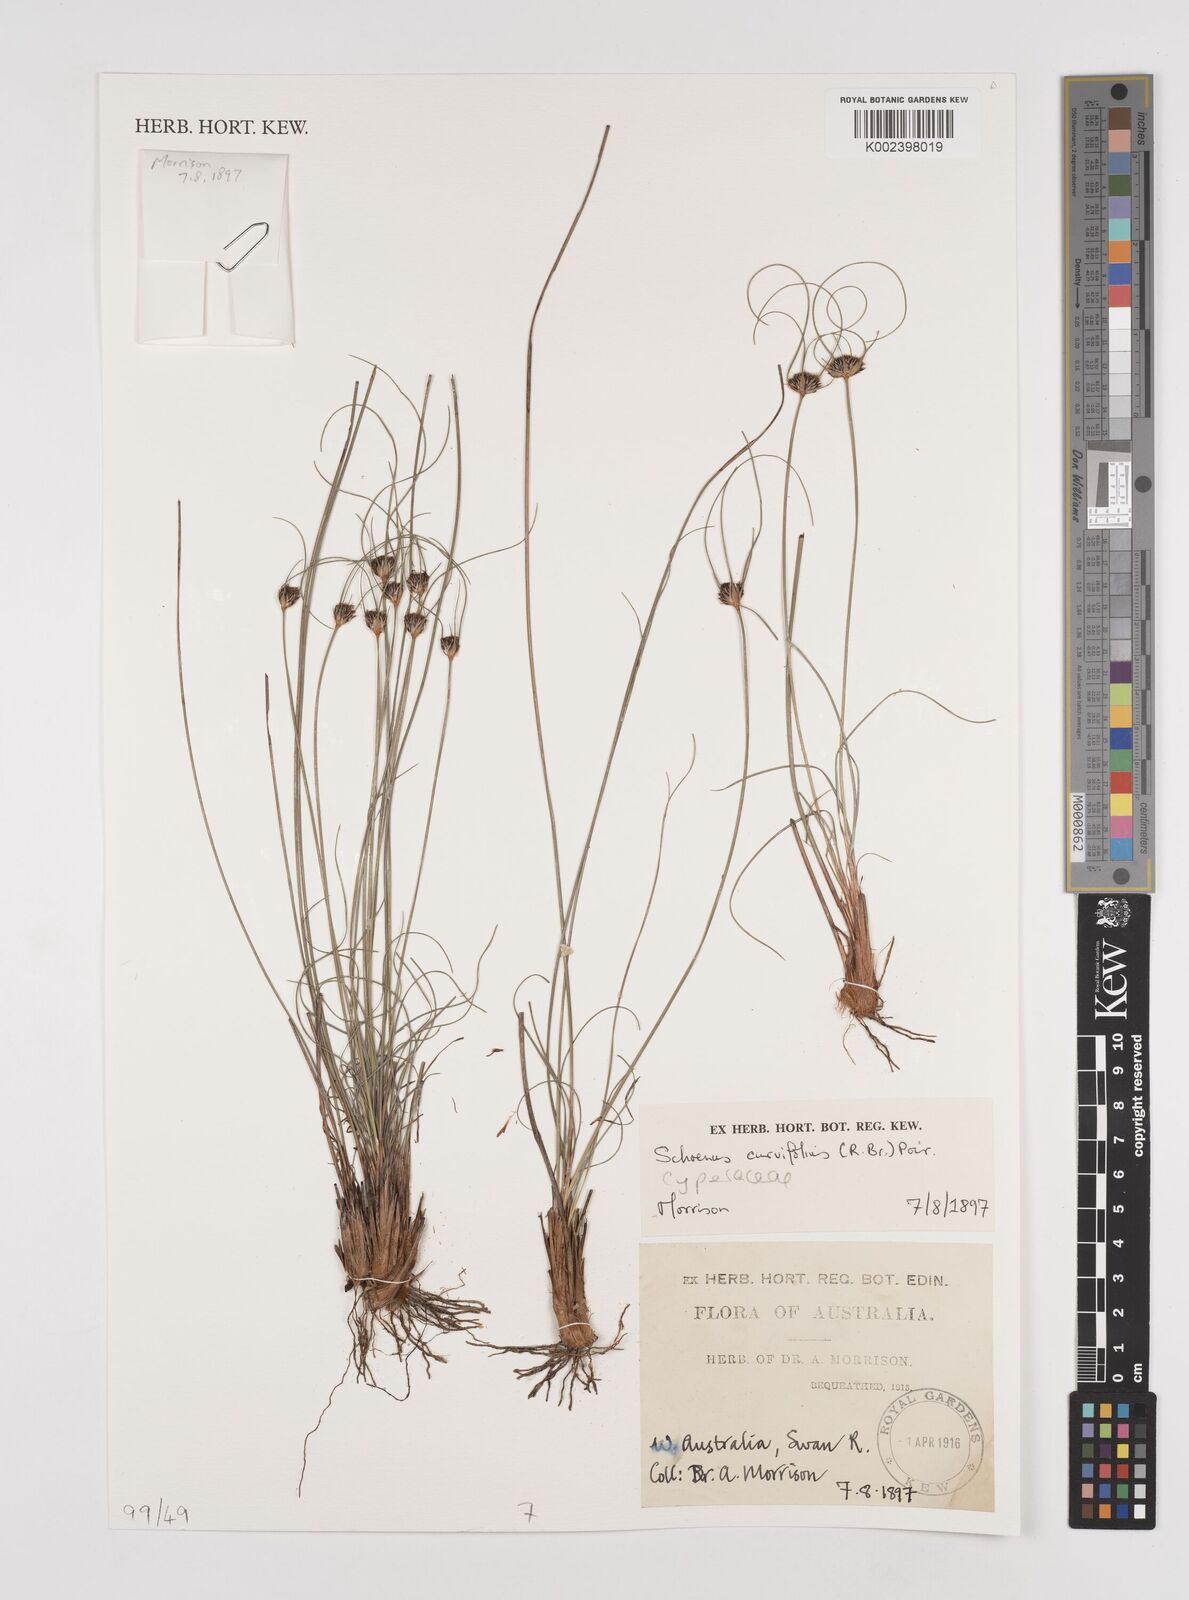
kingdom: Plantae
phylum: Tracheophyta
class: Liliopsida
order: Poales
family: Cyperaceae
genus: Schoenus
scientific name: Schoenus curvifolius
